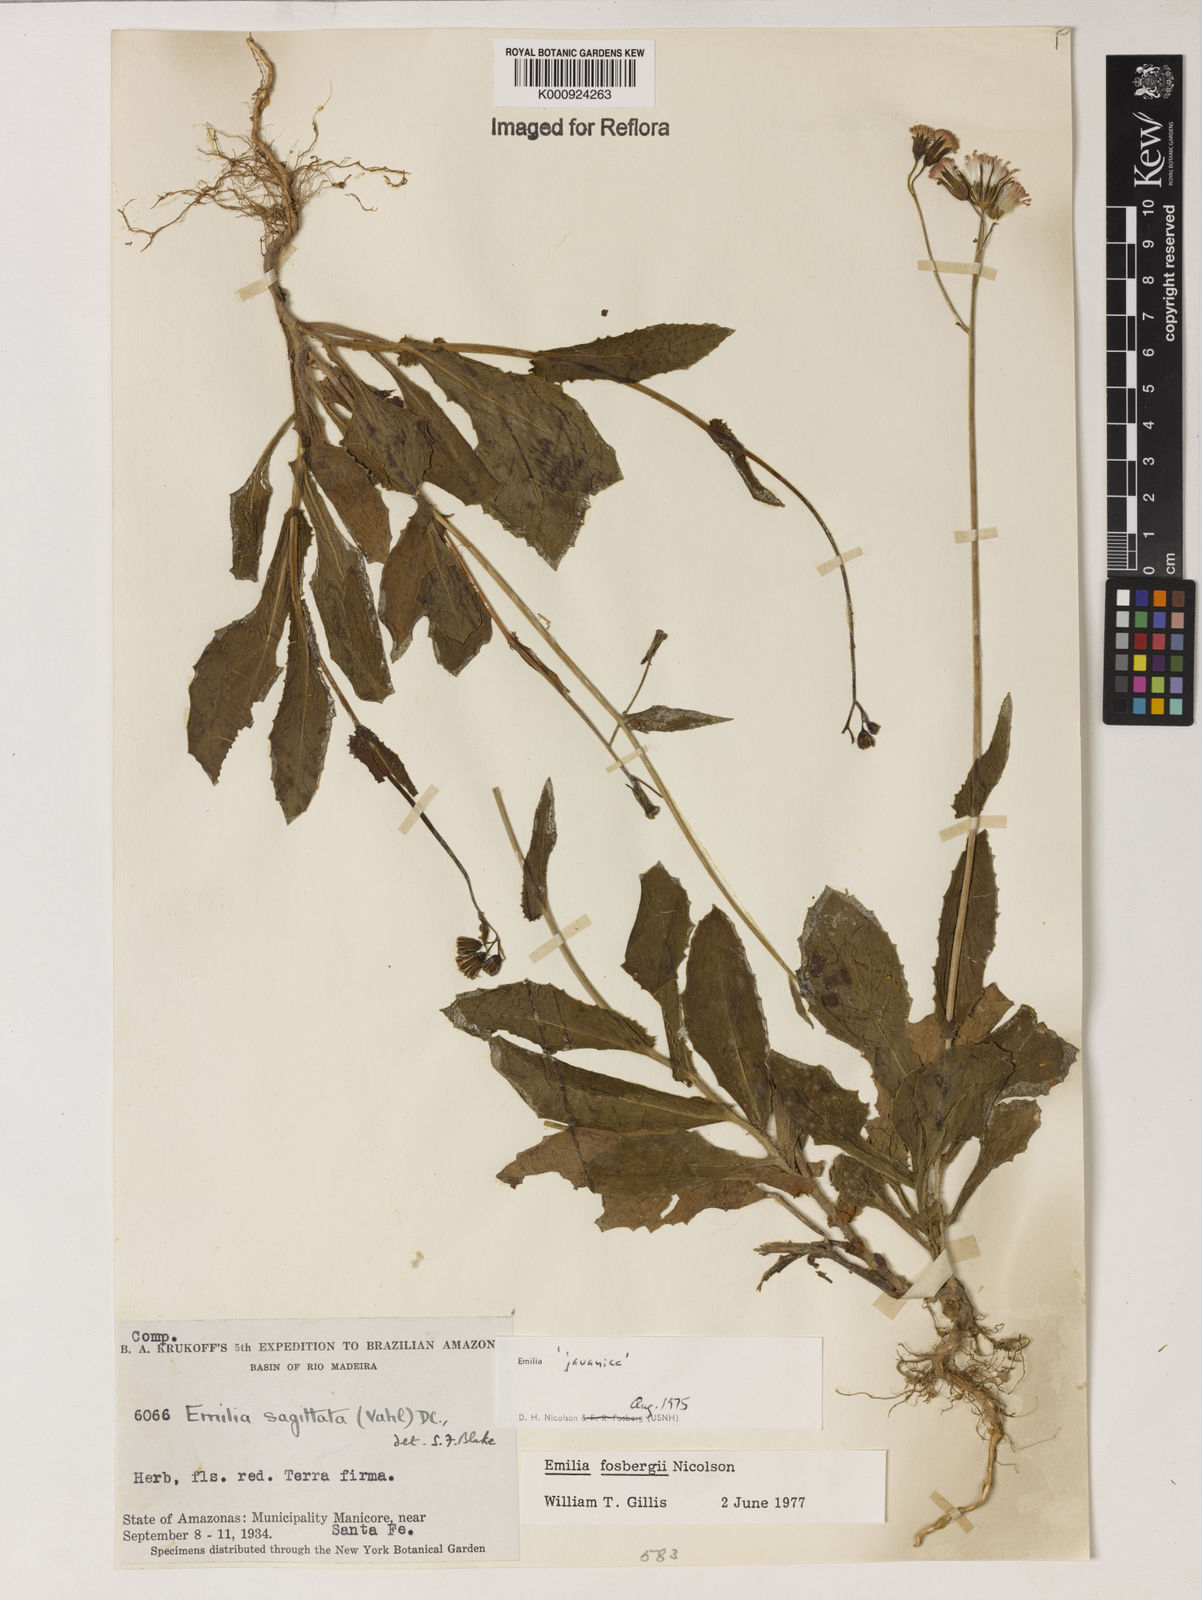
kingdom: Plantae
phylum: Tracheophyta
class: Magnoliopsida
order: Asterales
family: Asteraceae
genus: Emilia
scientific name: Emilia fosbergii
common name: Florida tasselflower
